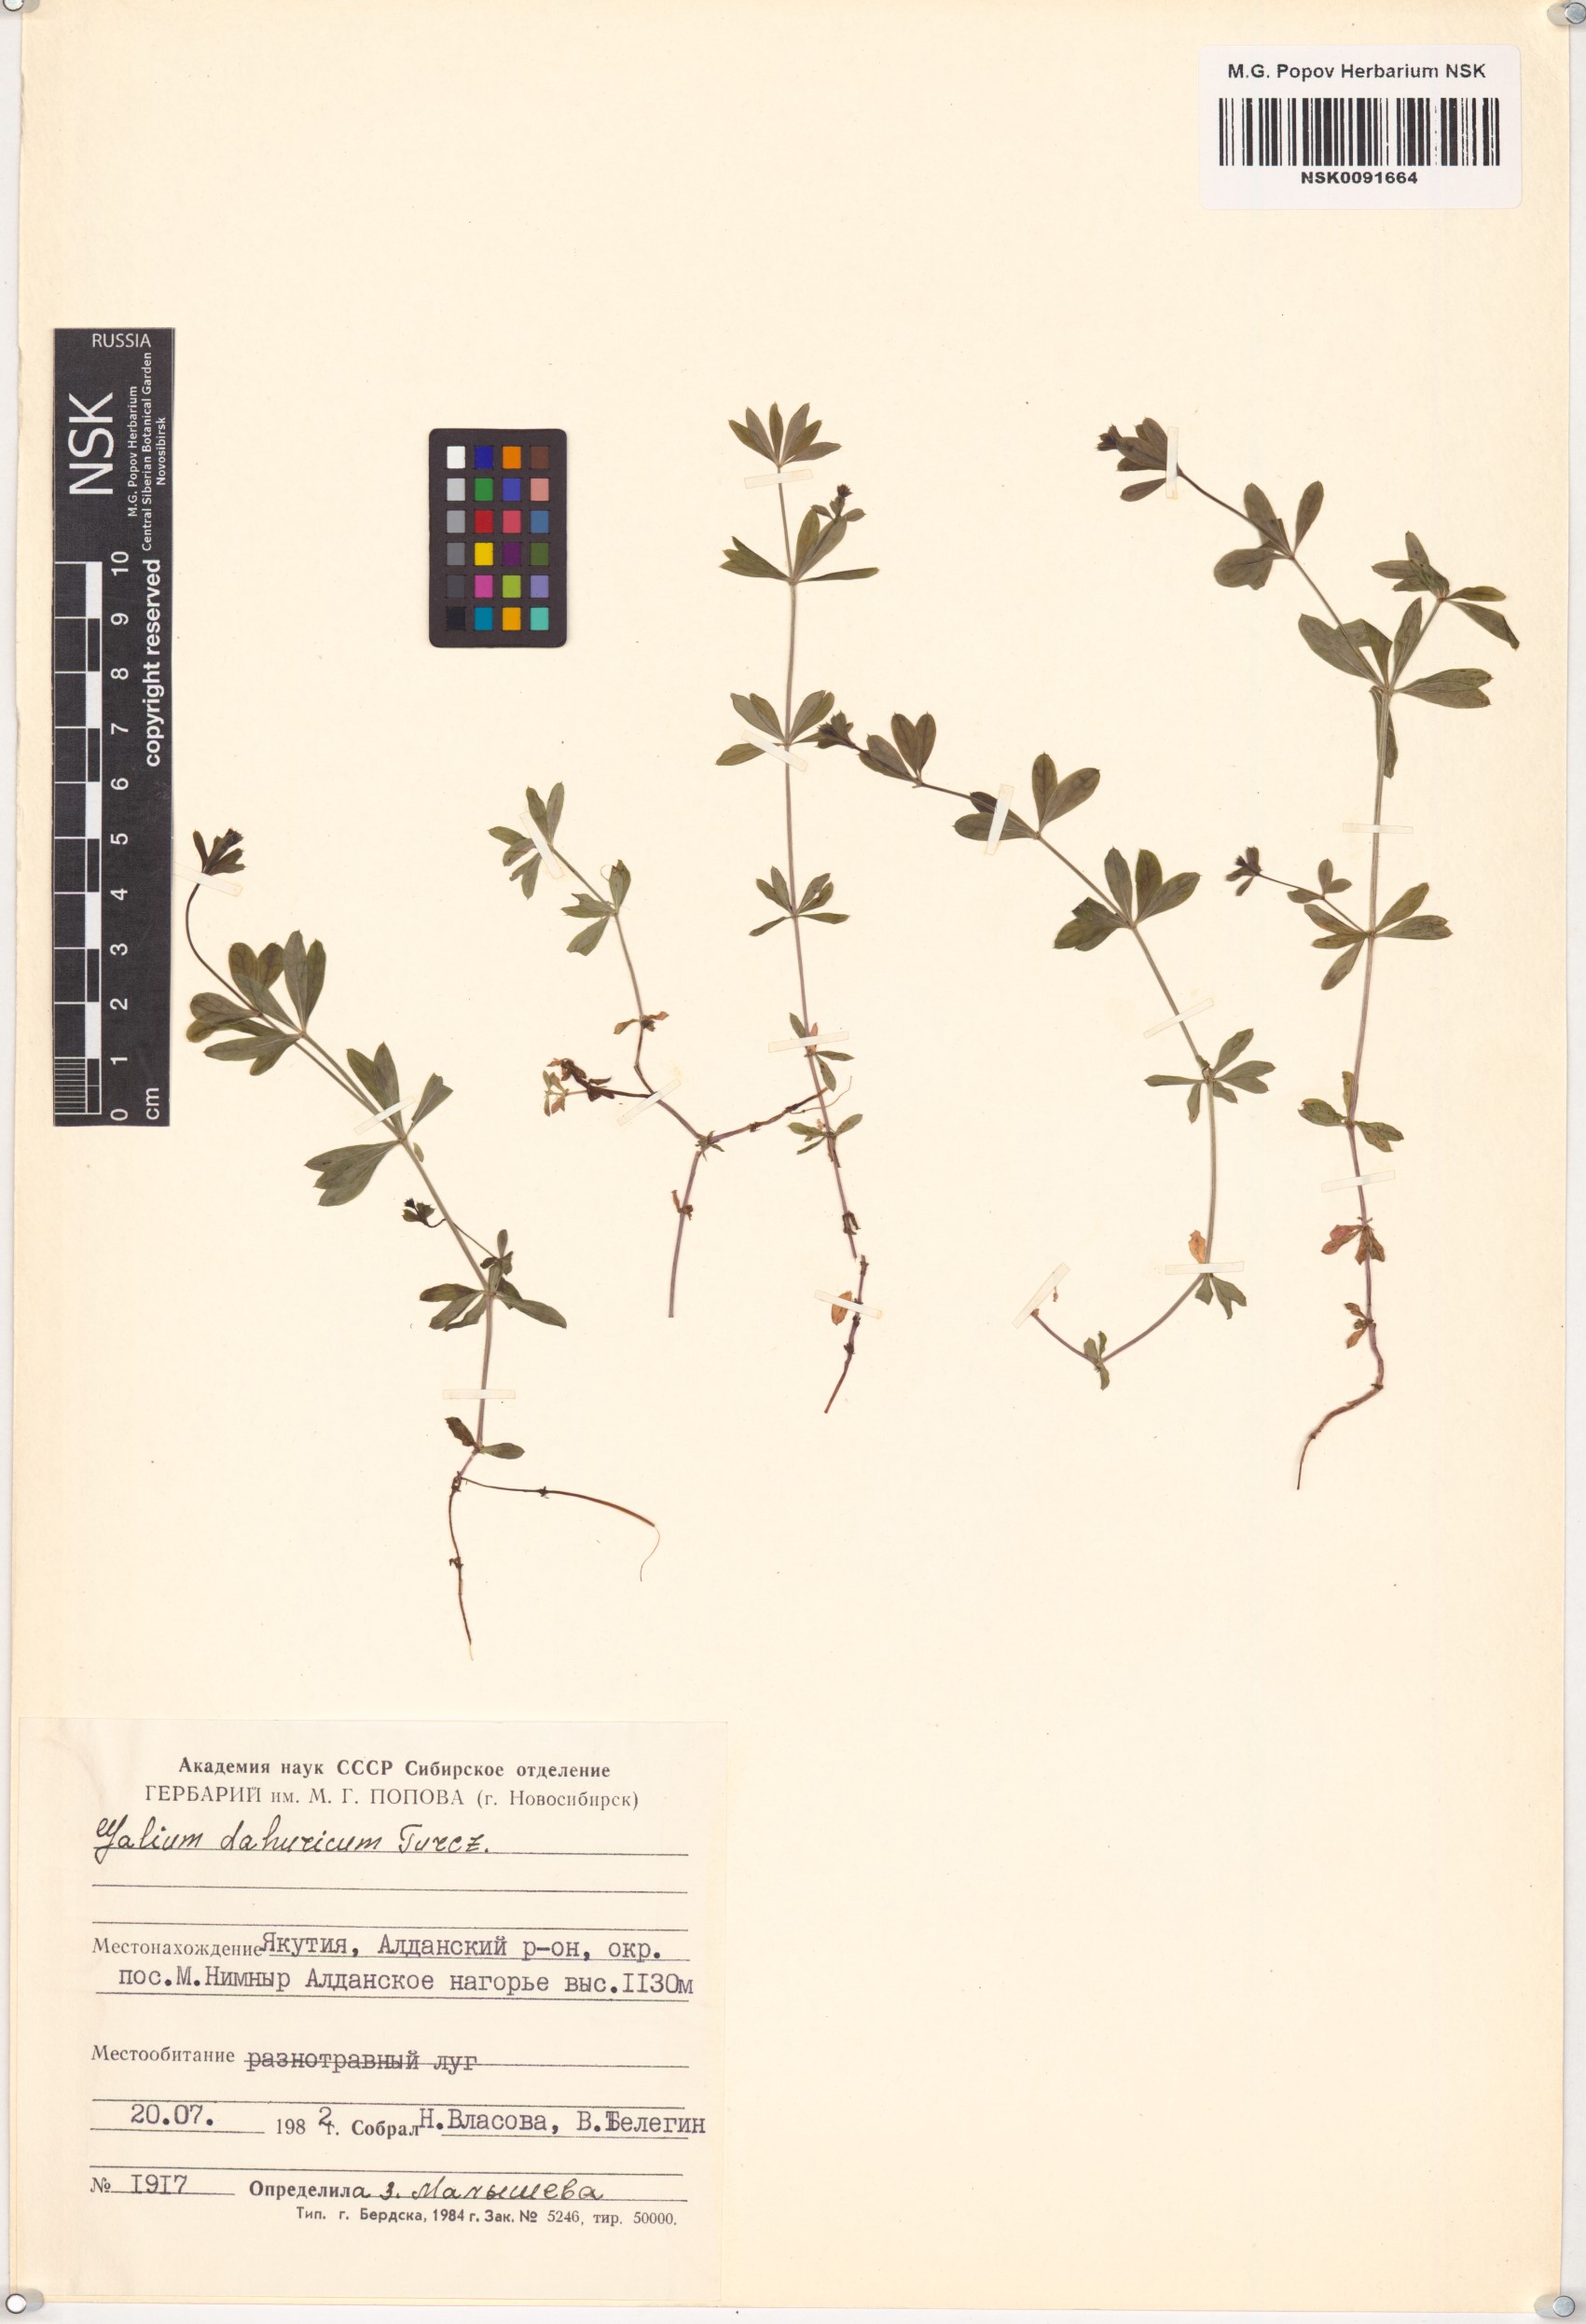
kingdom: Plantae
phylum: Tracheophyta
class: Magnoliopsida
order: Gentianales
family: Rubiaceae
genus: Galium
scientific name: Galium dahuricum
